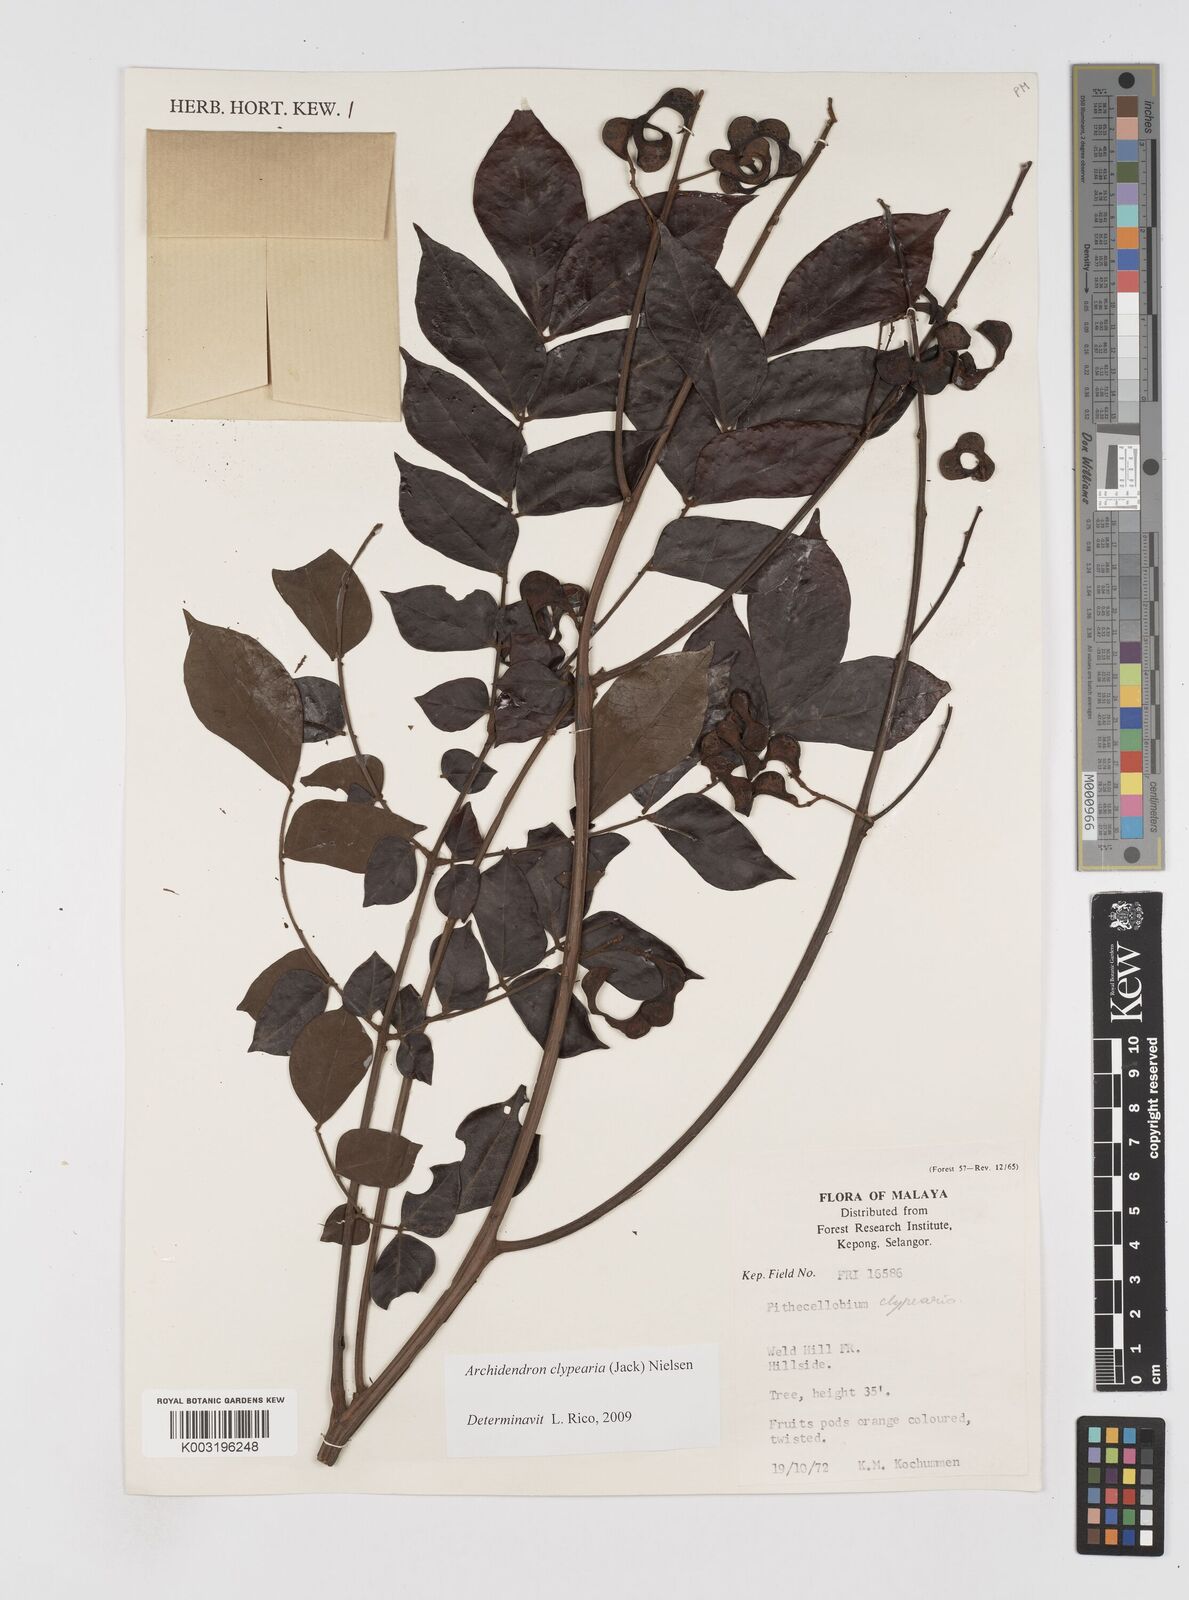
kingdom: Plantae
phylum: Tracheophyta
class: Magnoliopsida
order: Fabales
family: Fabaceae
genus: Archidendron
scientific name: Archidendron clypearia
